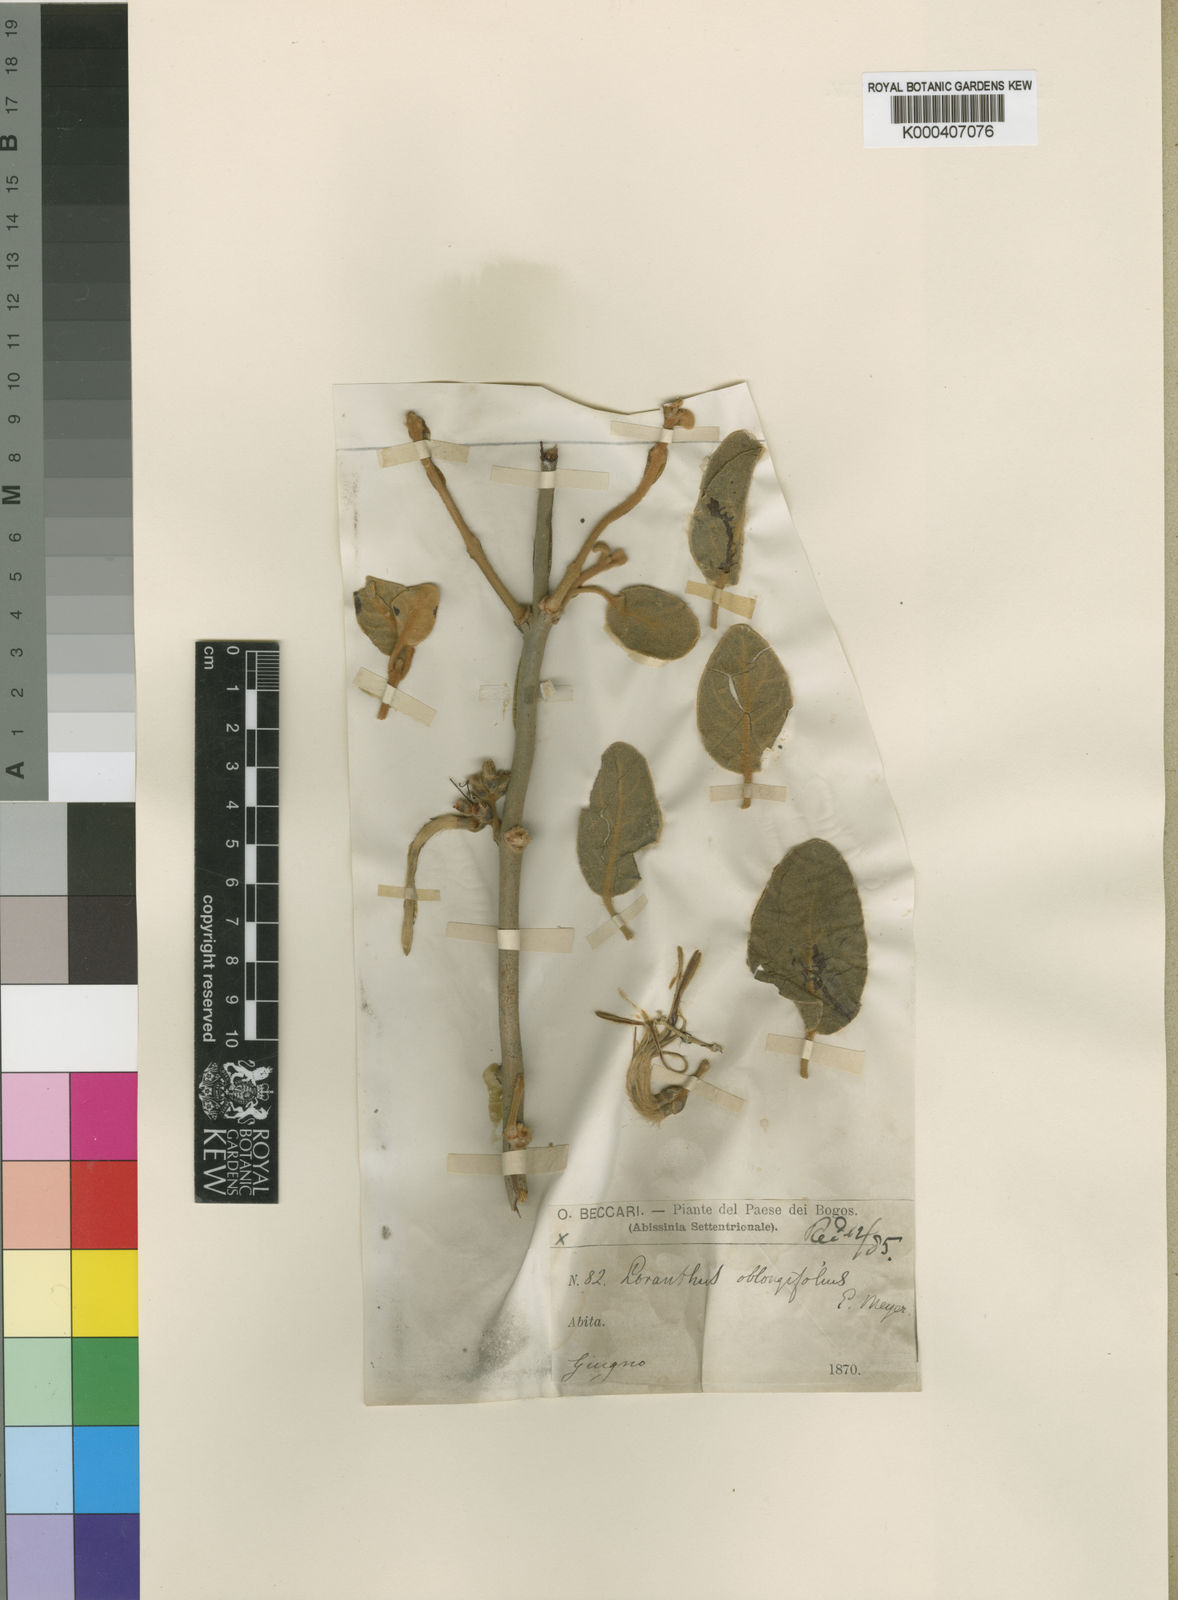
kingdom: Plantae
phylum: Tracheophyta
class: Magnoliopsida
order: Santalales
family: Loranthaceae
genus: Erianthemum
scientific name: Erianthemum dregei
